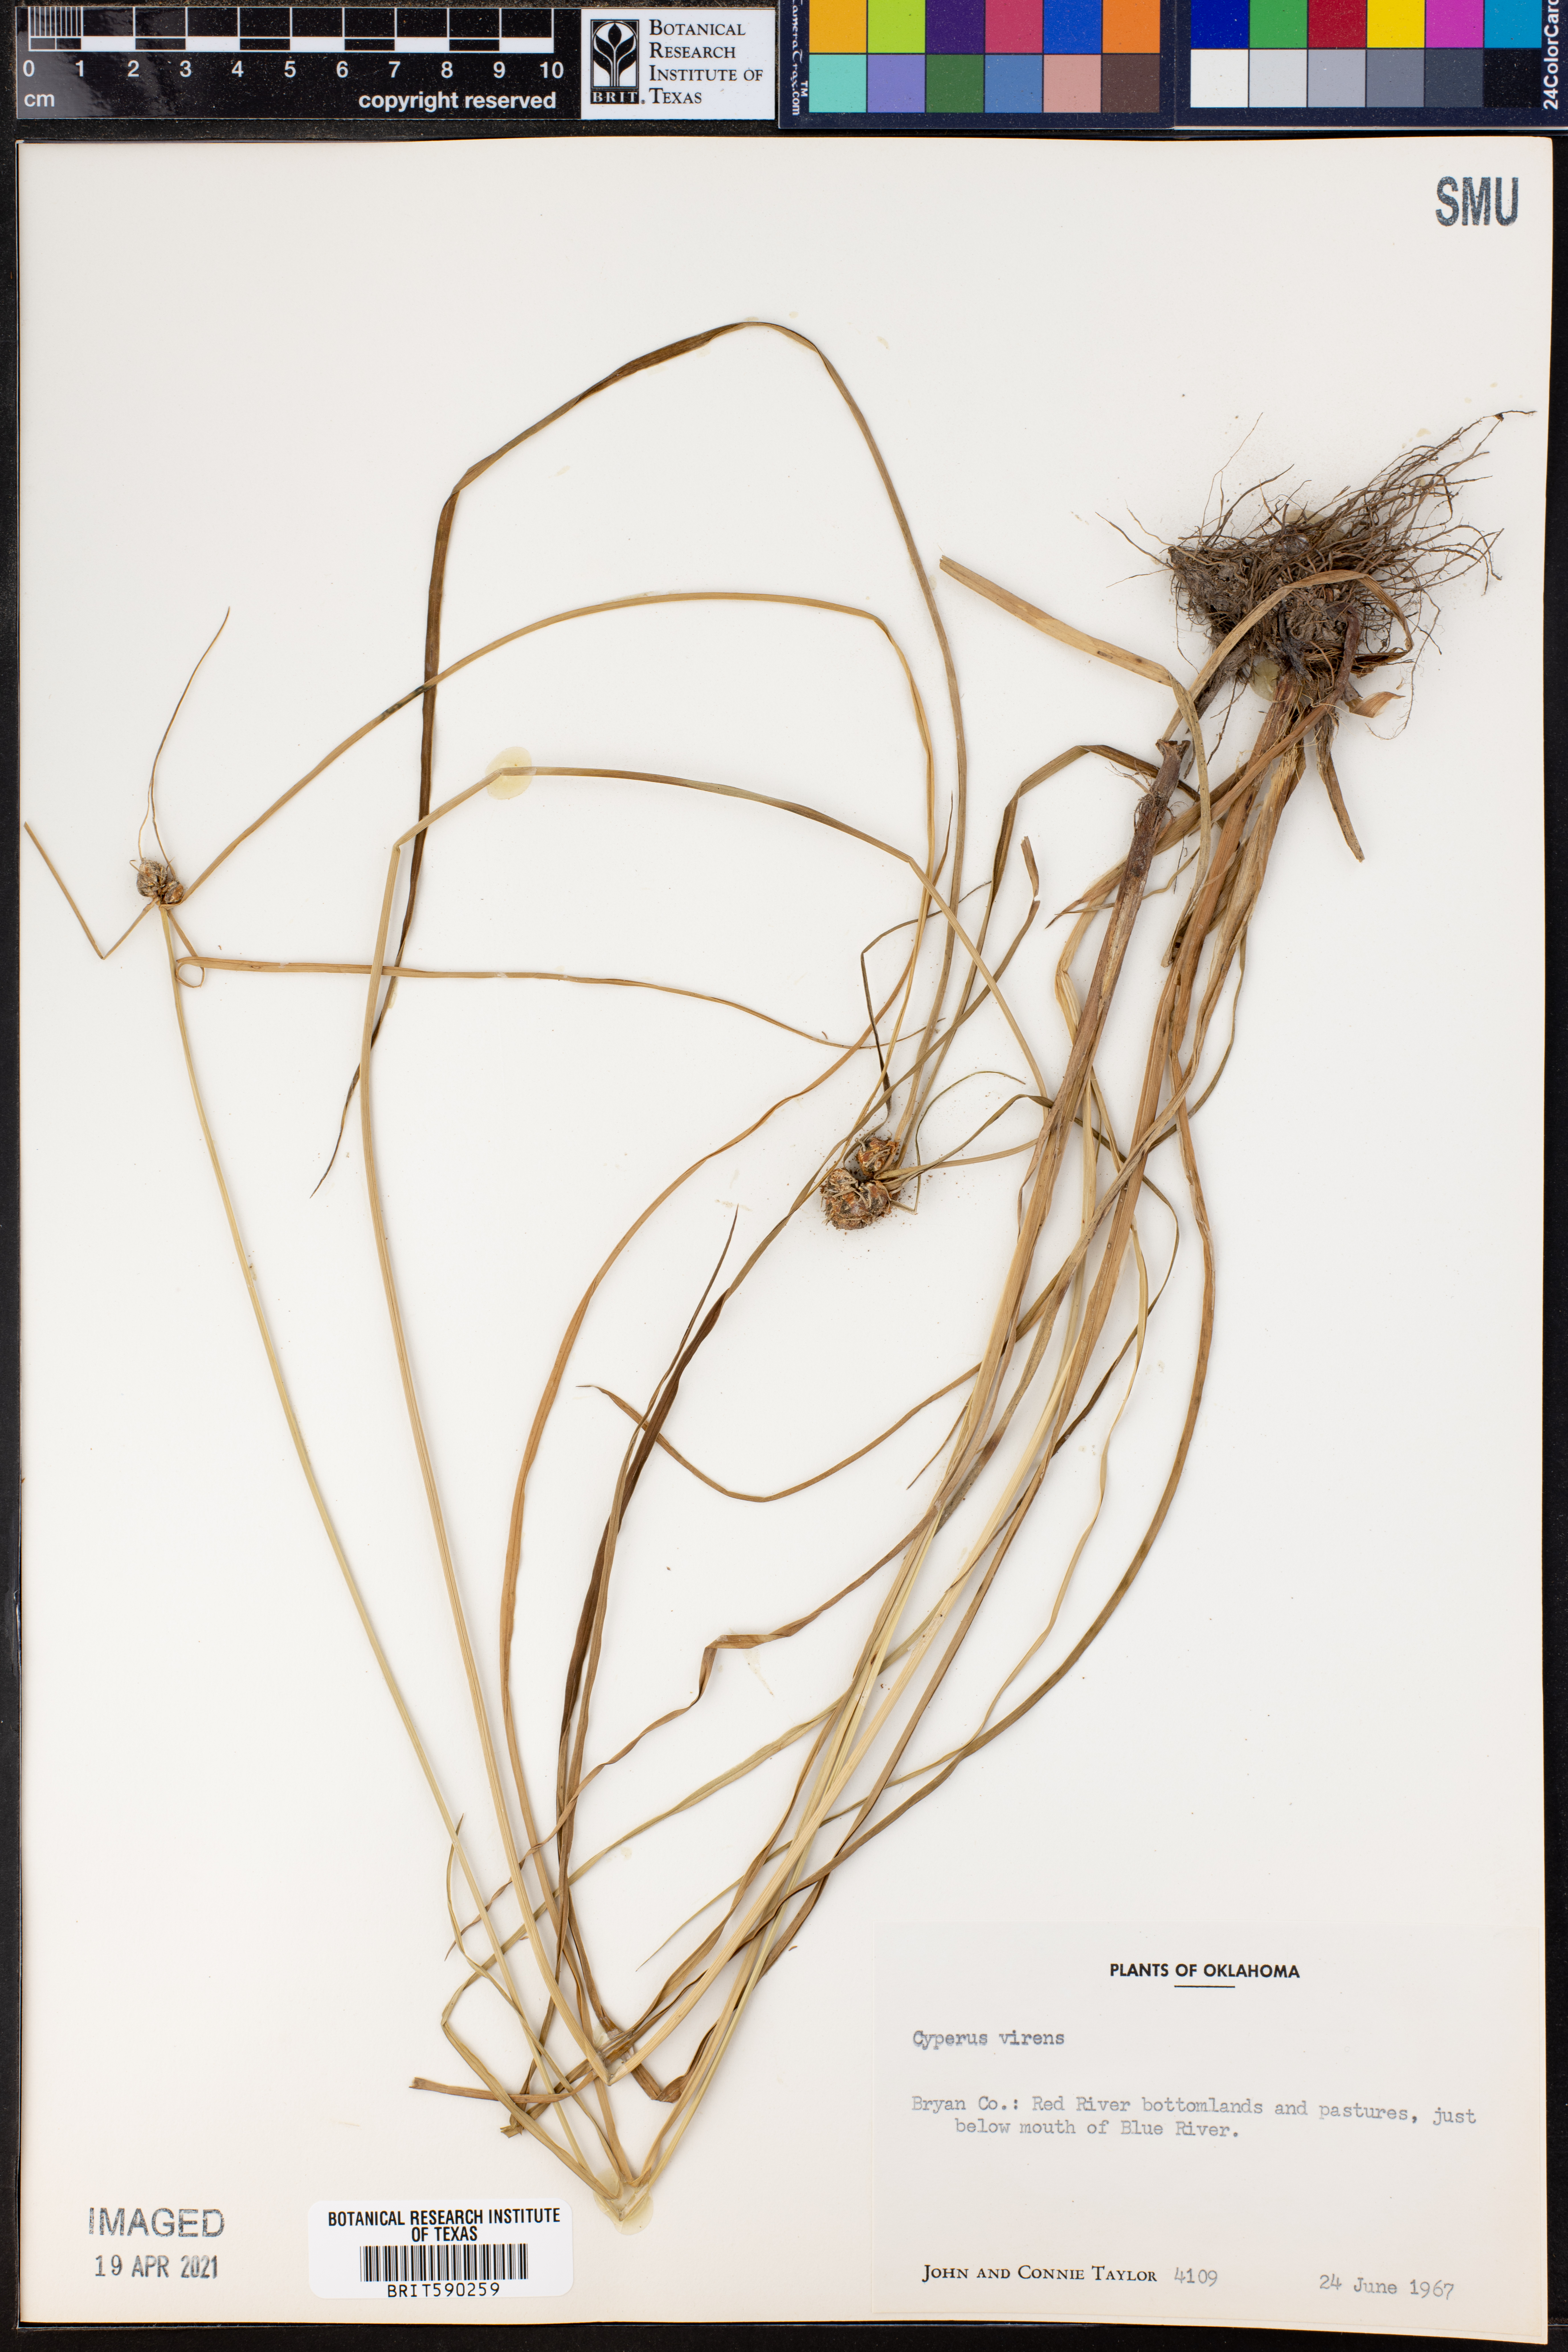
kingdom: Plantae
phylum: Tracheophyta
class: Liliopsida
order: Poales
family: Cyperaceae
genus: Cyperus
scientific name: Cyperus virens
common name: Green flatsedge
